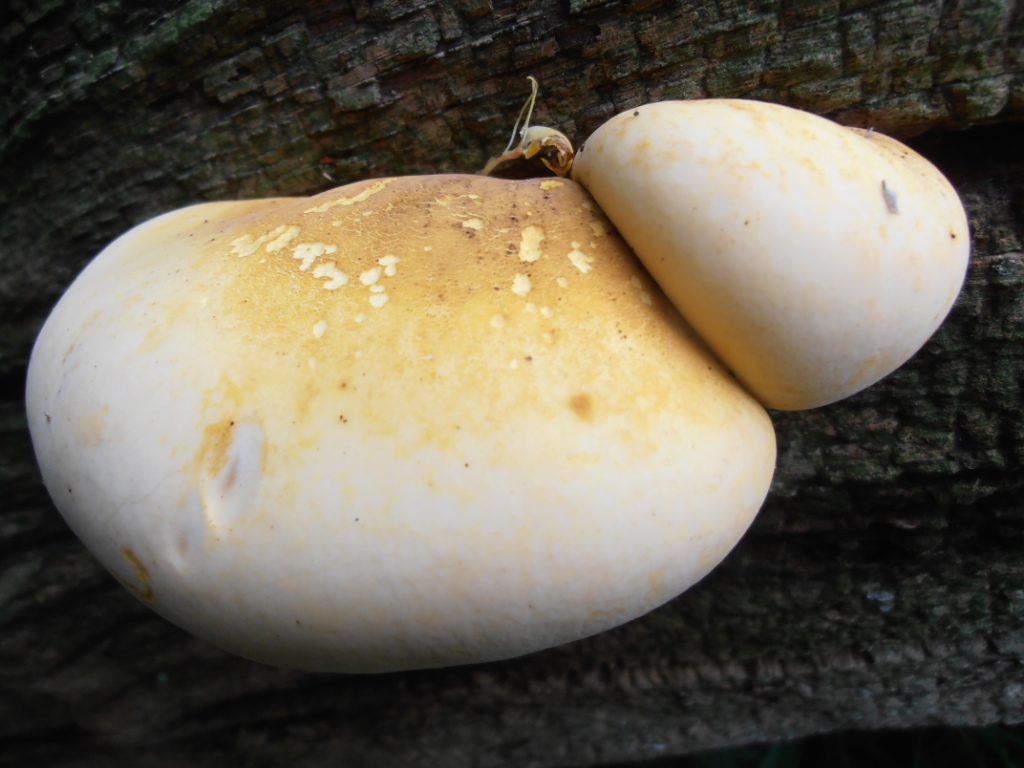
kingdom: Fungi
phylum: Basidiomycota
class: Agaricomycetes
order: Polyporales
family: Fomitopsidaceae
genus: Buglossoporus
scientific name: Buglossoporus quercinus
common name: egetunge
